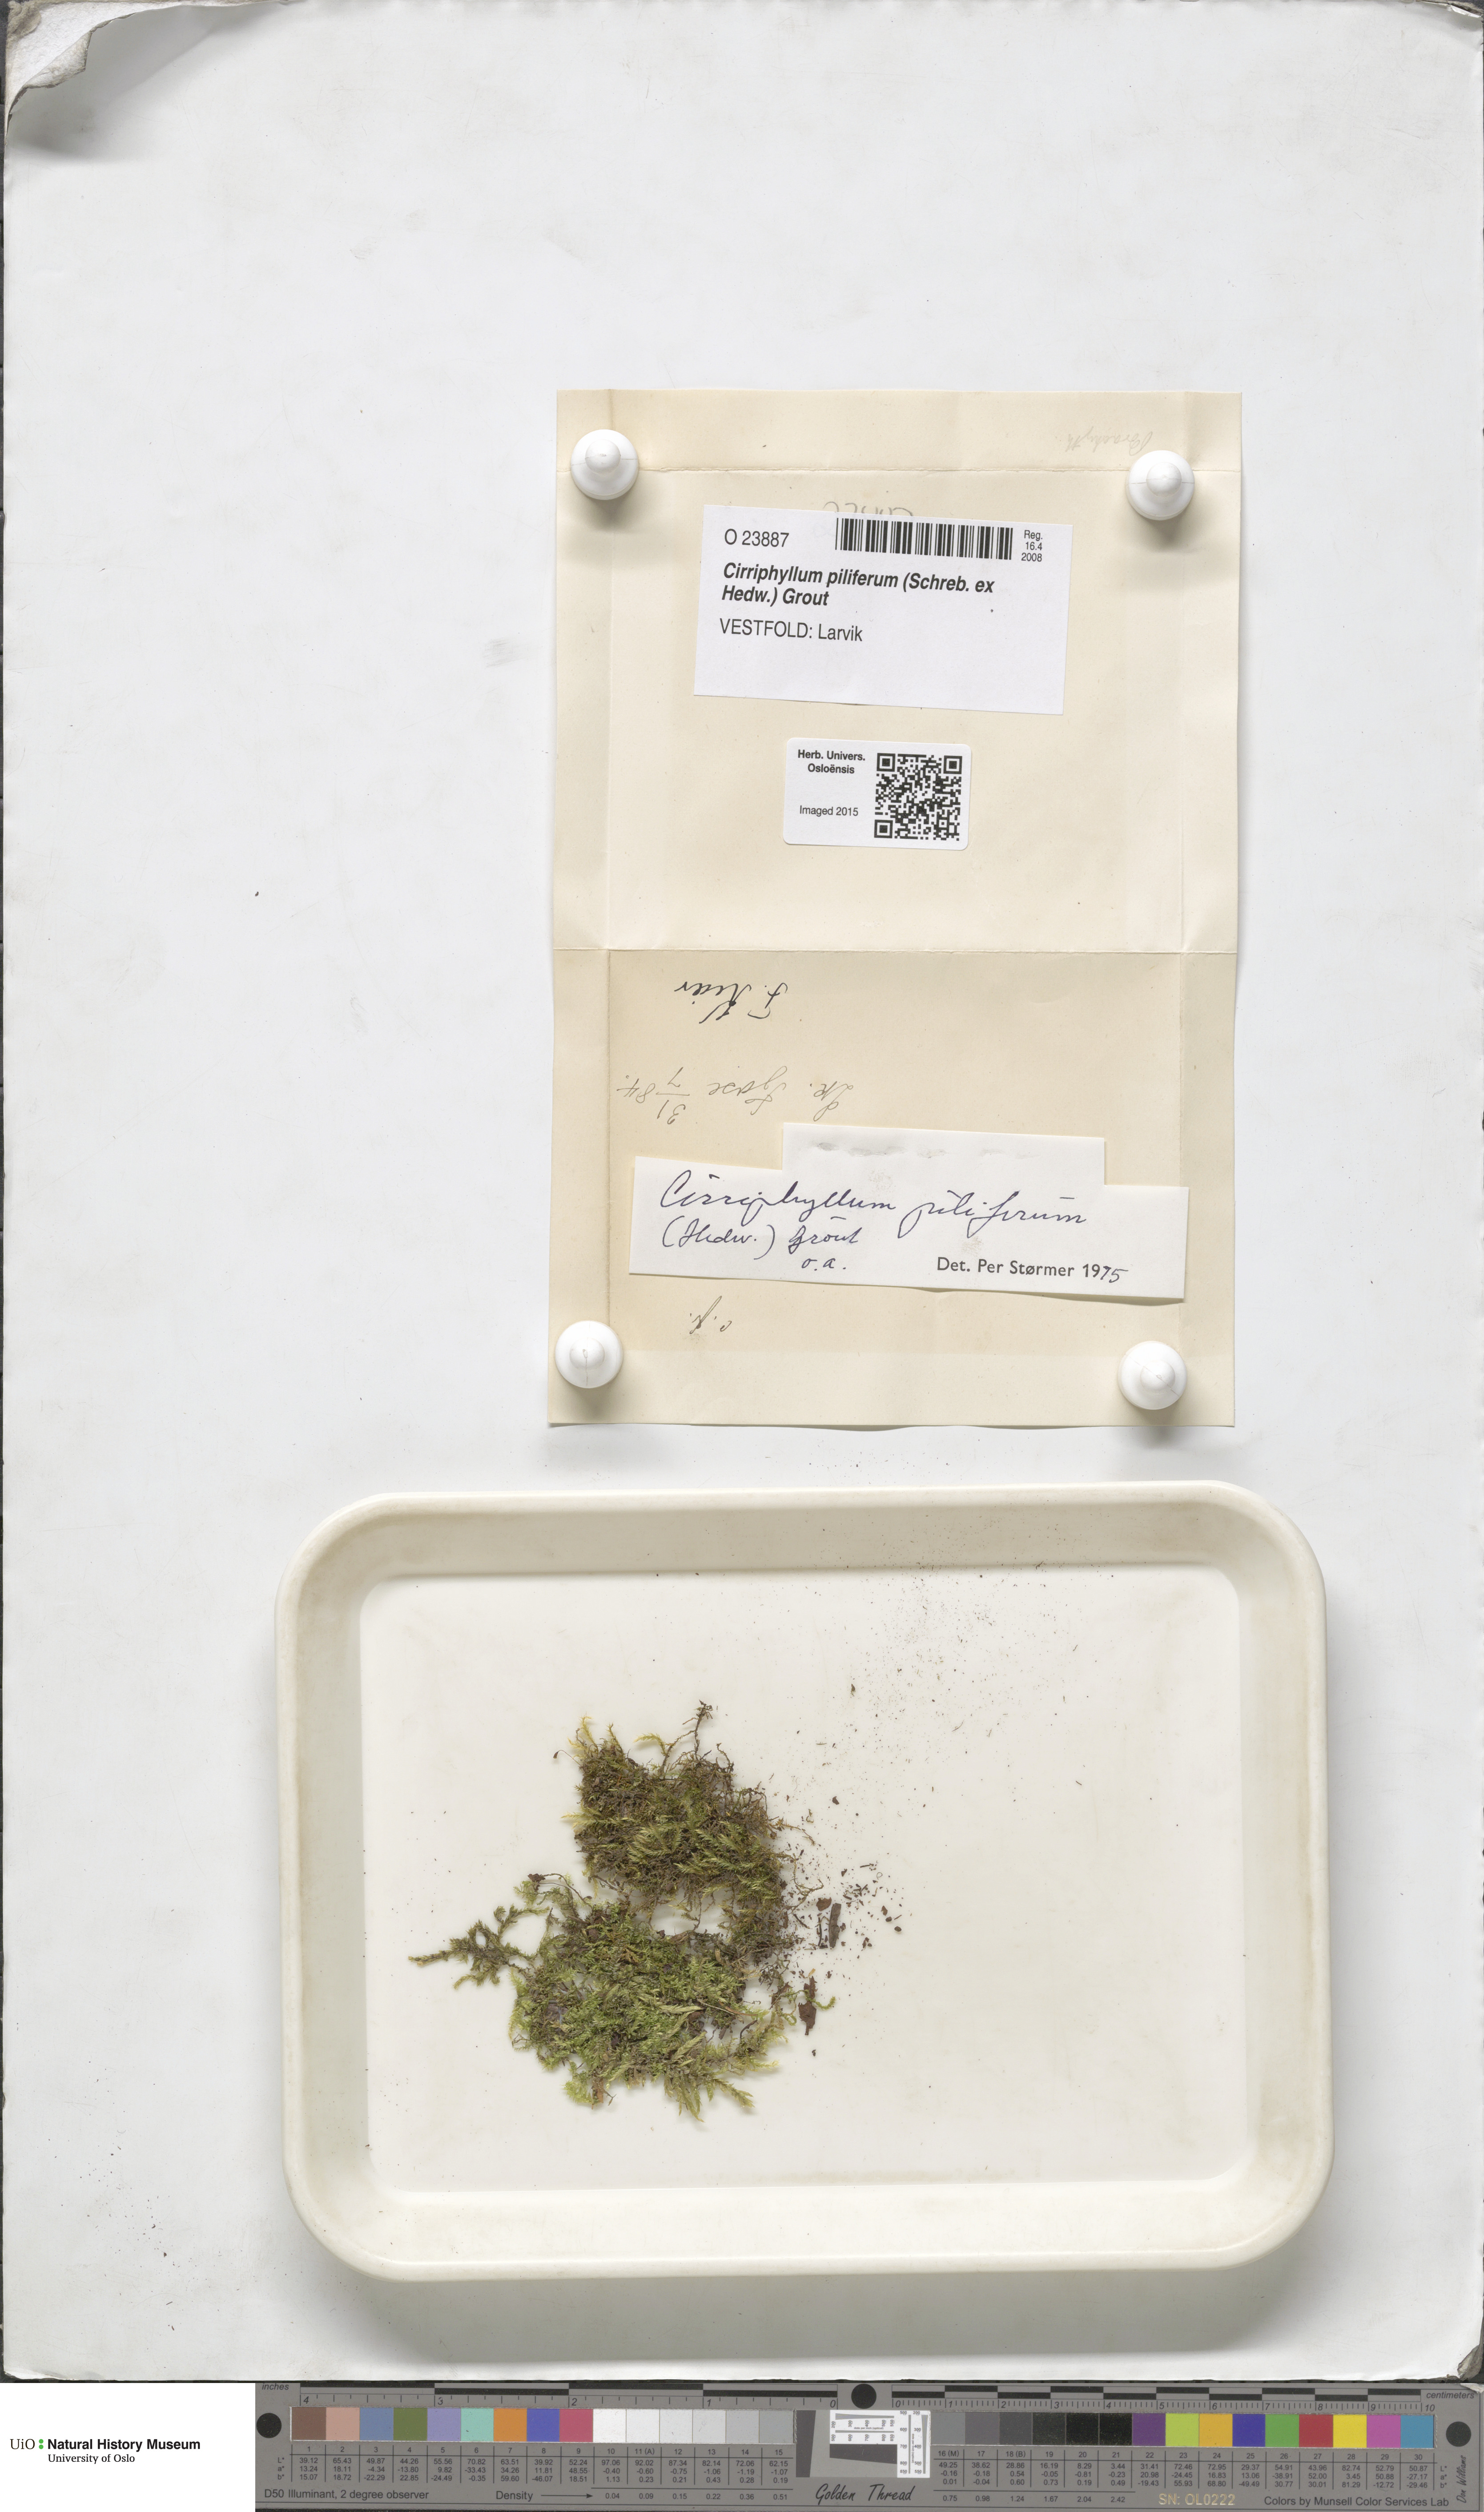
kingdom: Plantae
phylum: Bryophyta
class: Bryopsida
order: Hypnales
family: Brachytheciaceae
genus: Cirriphyllum
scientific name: Cirriphyllum piliferum
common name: Hair-pointed moss
